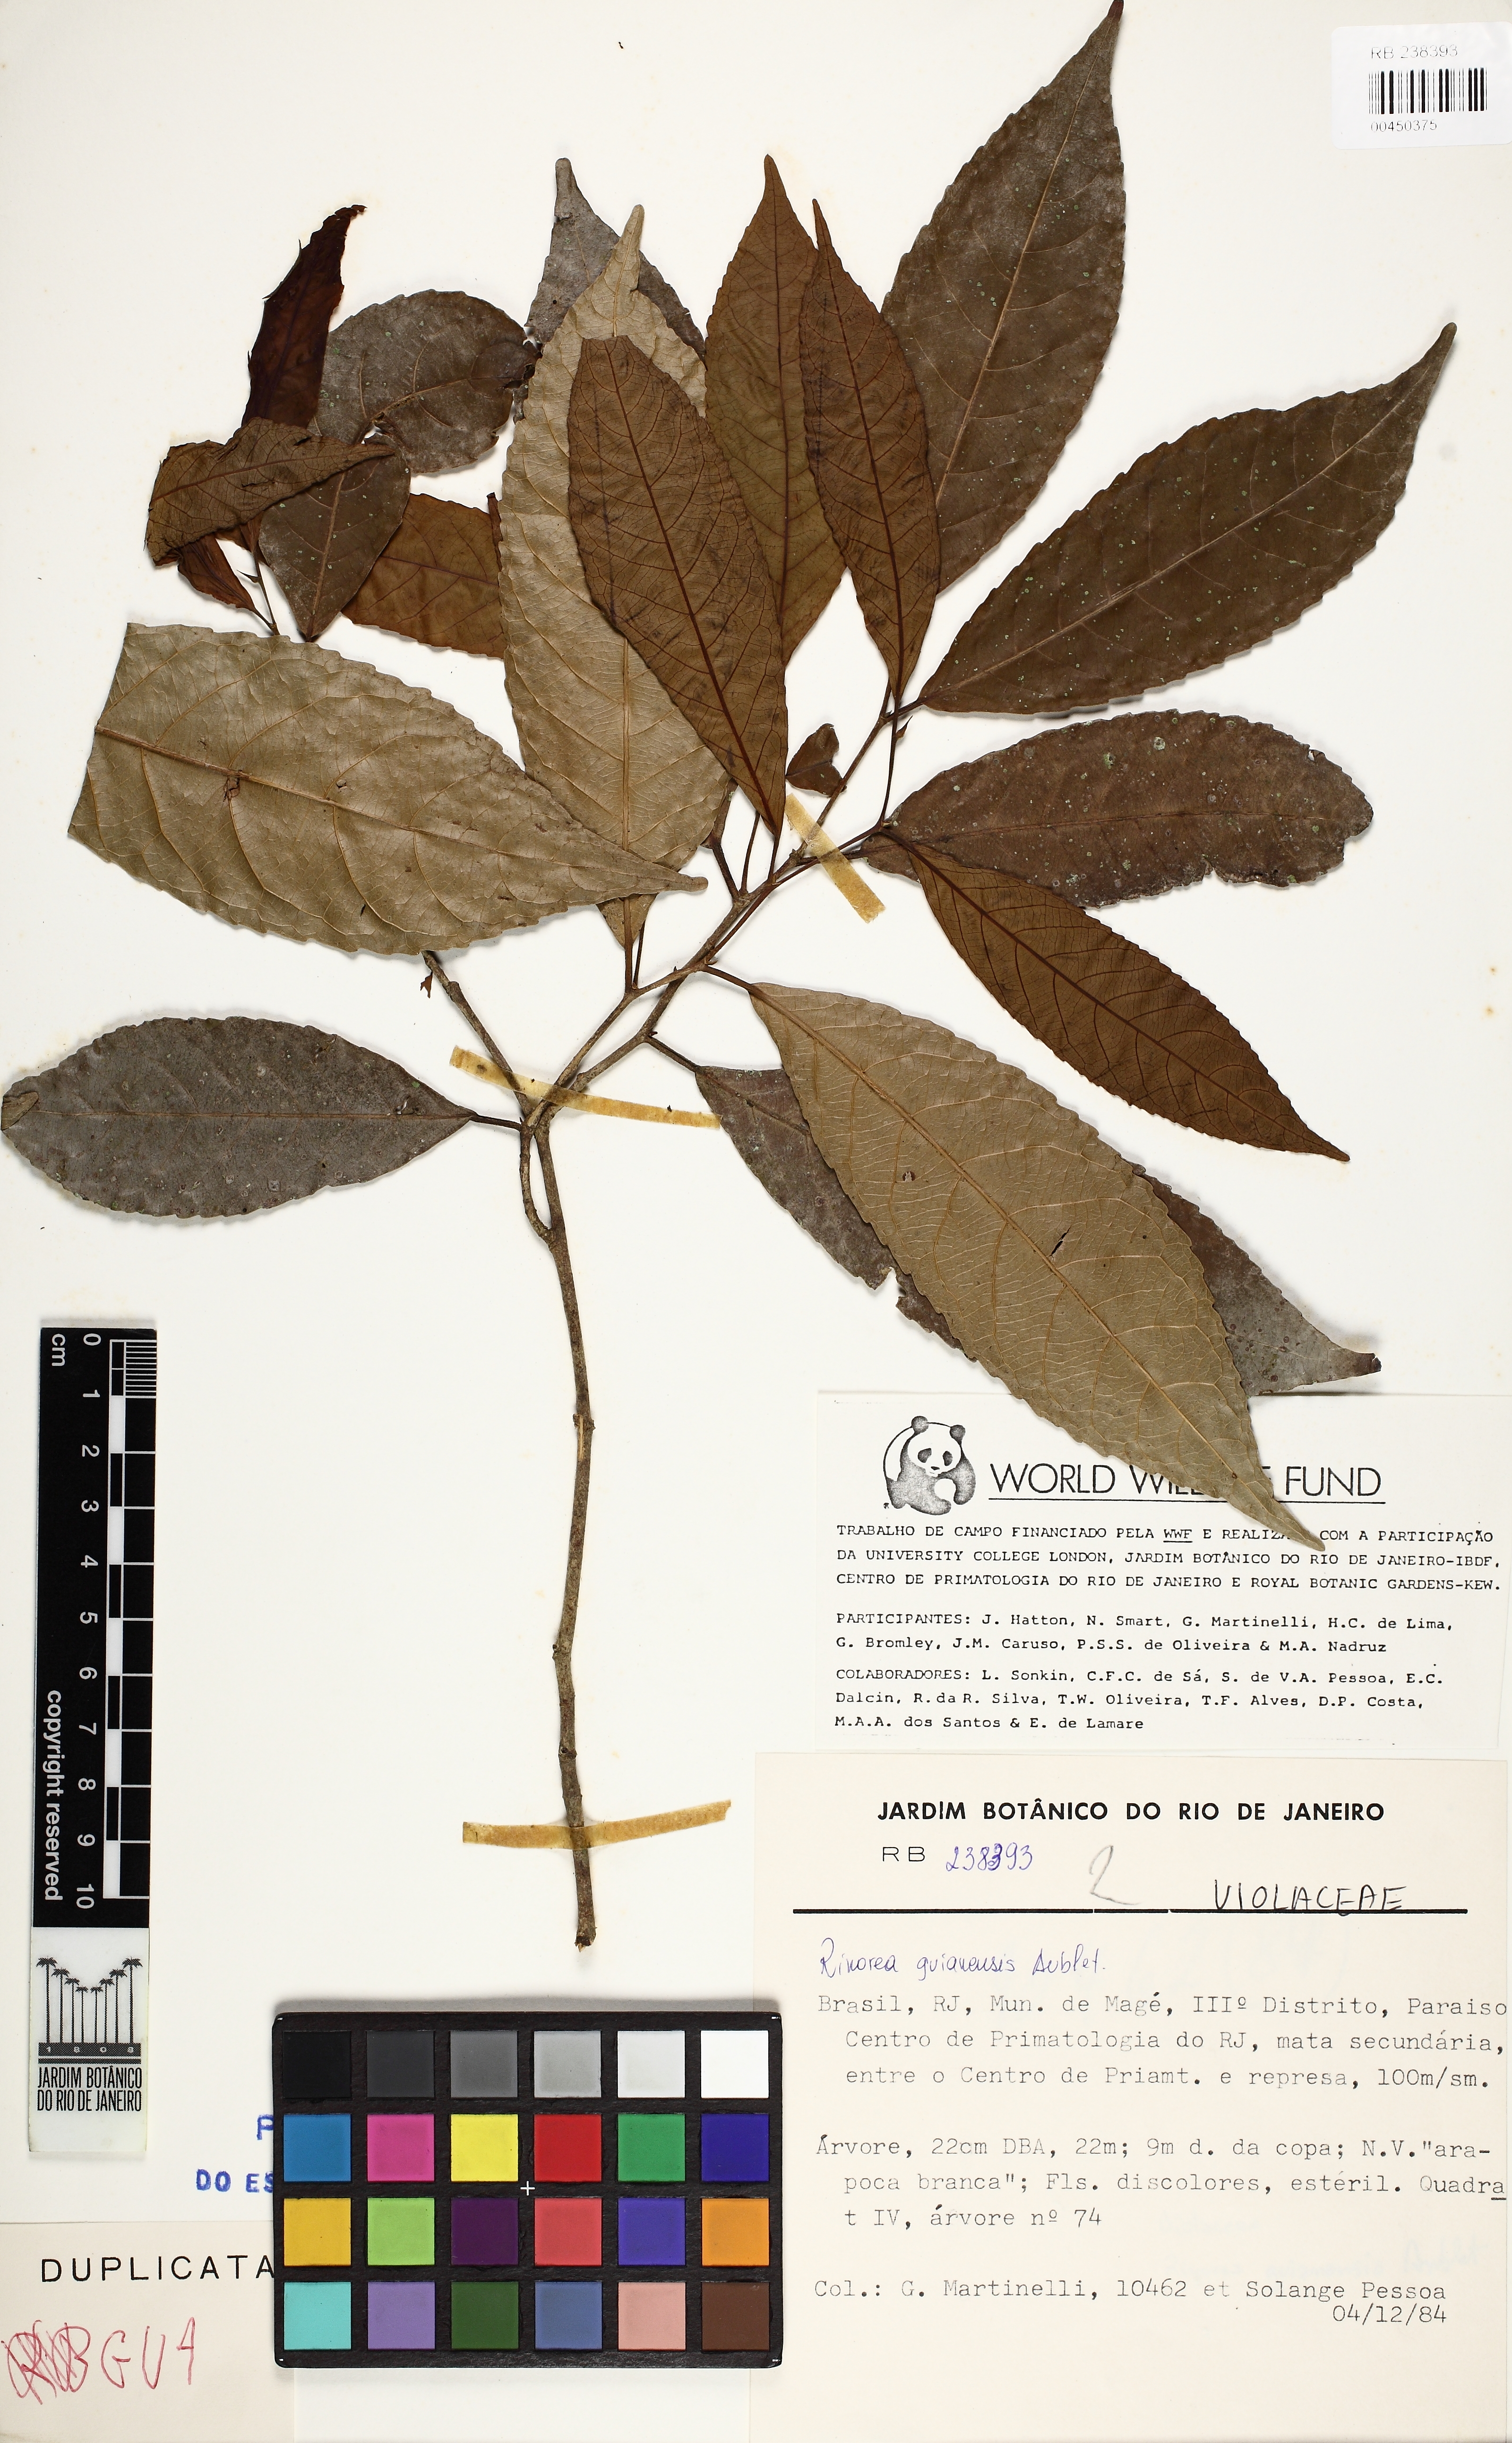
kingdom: Plantae
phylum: Tracheophyta
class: Magnoliopsida
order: Malpighiales
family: Violaceae
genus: Rinorea
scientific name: Rinorea guianensis
